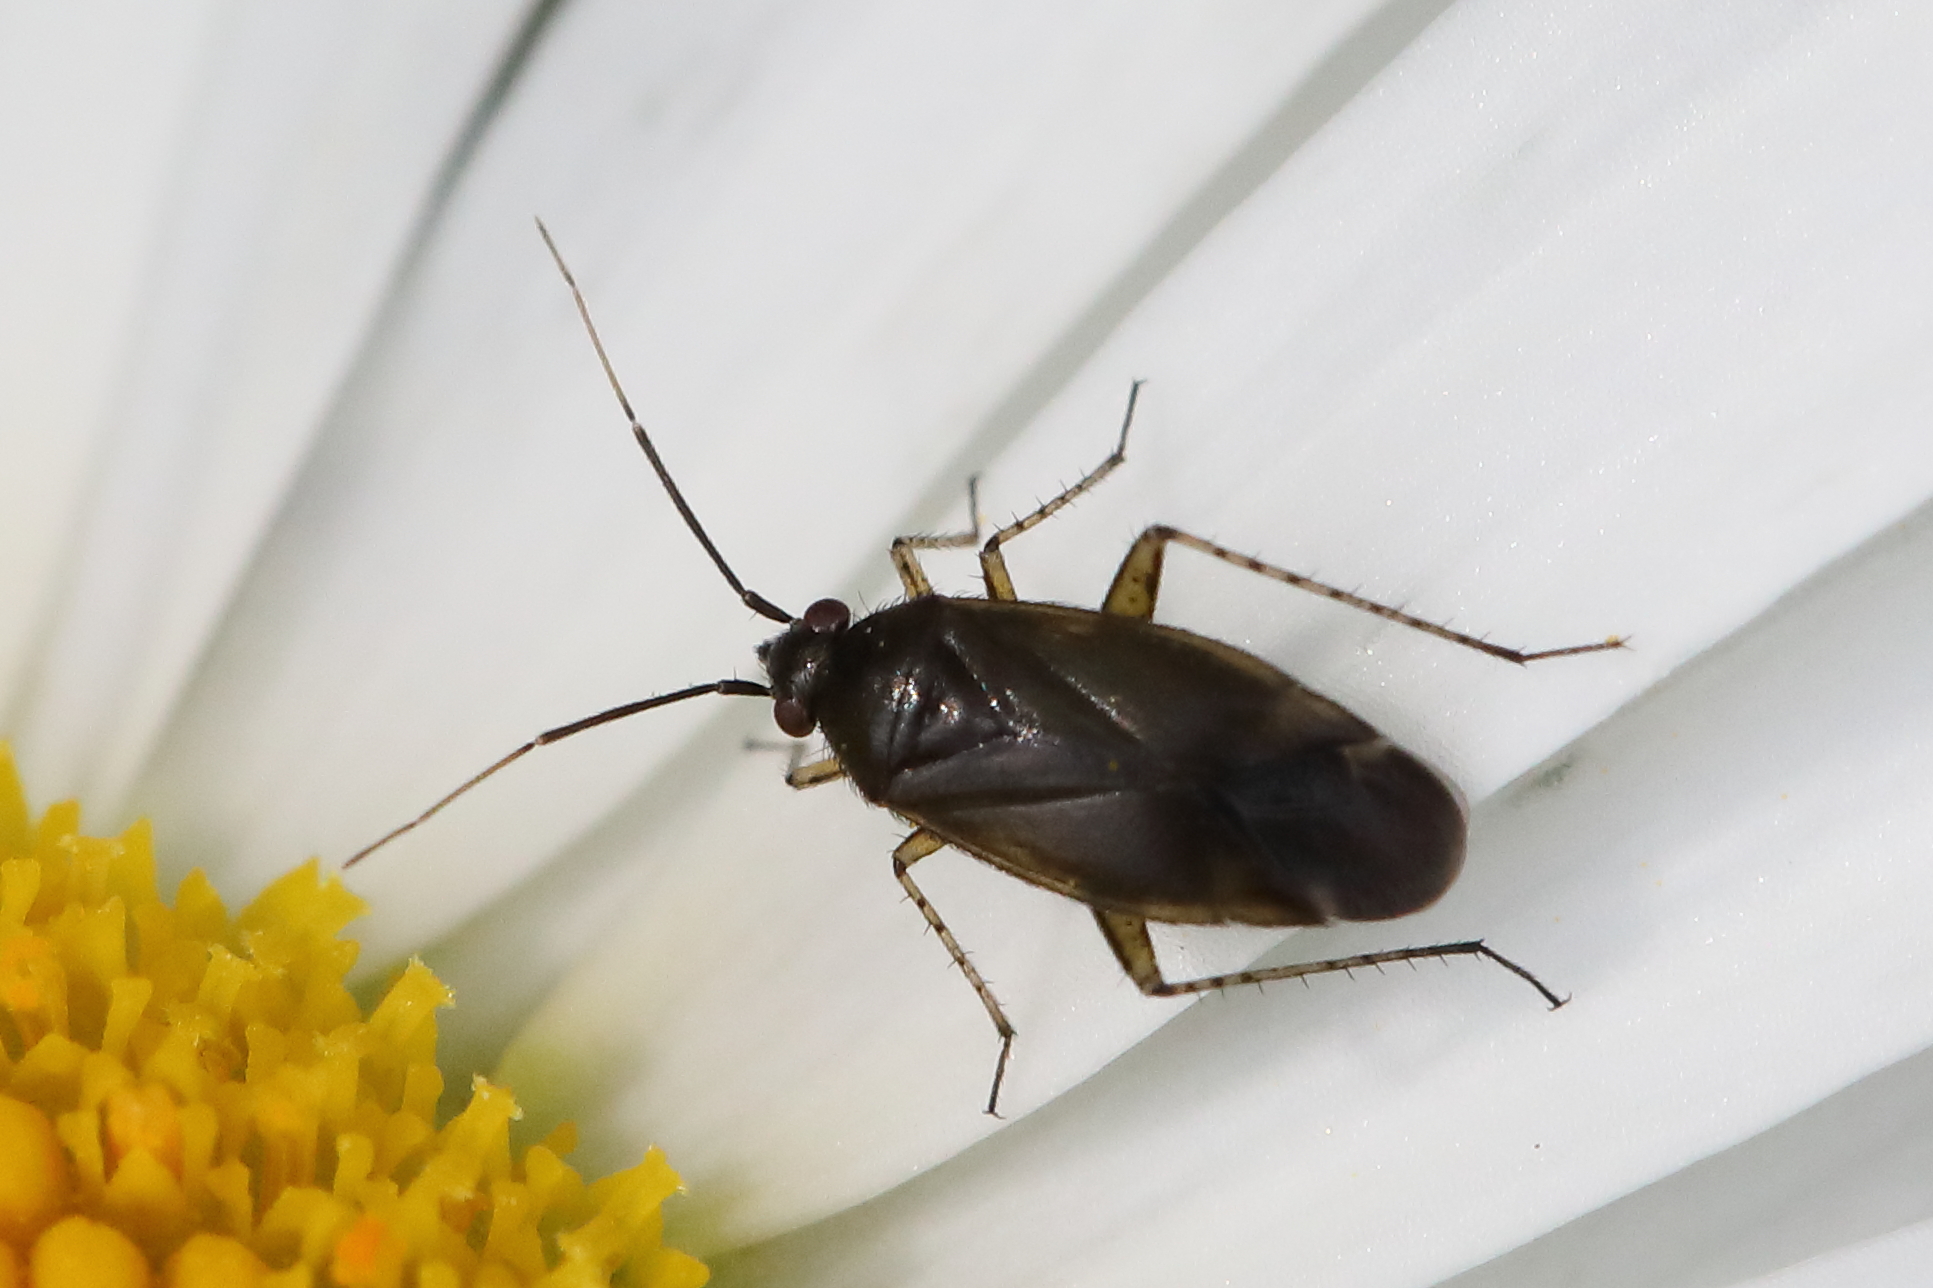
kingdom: Animalia
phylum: Arthropoda
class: Insecta
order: Hemiptera
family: Miridae
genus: Plagiognathus
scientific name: Plagiognathus arbustorum
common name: Plant bug
